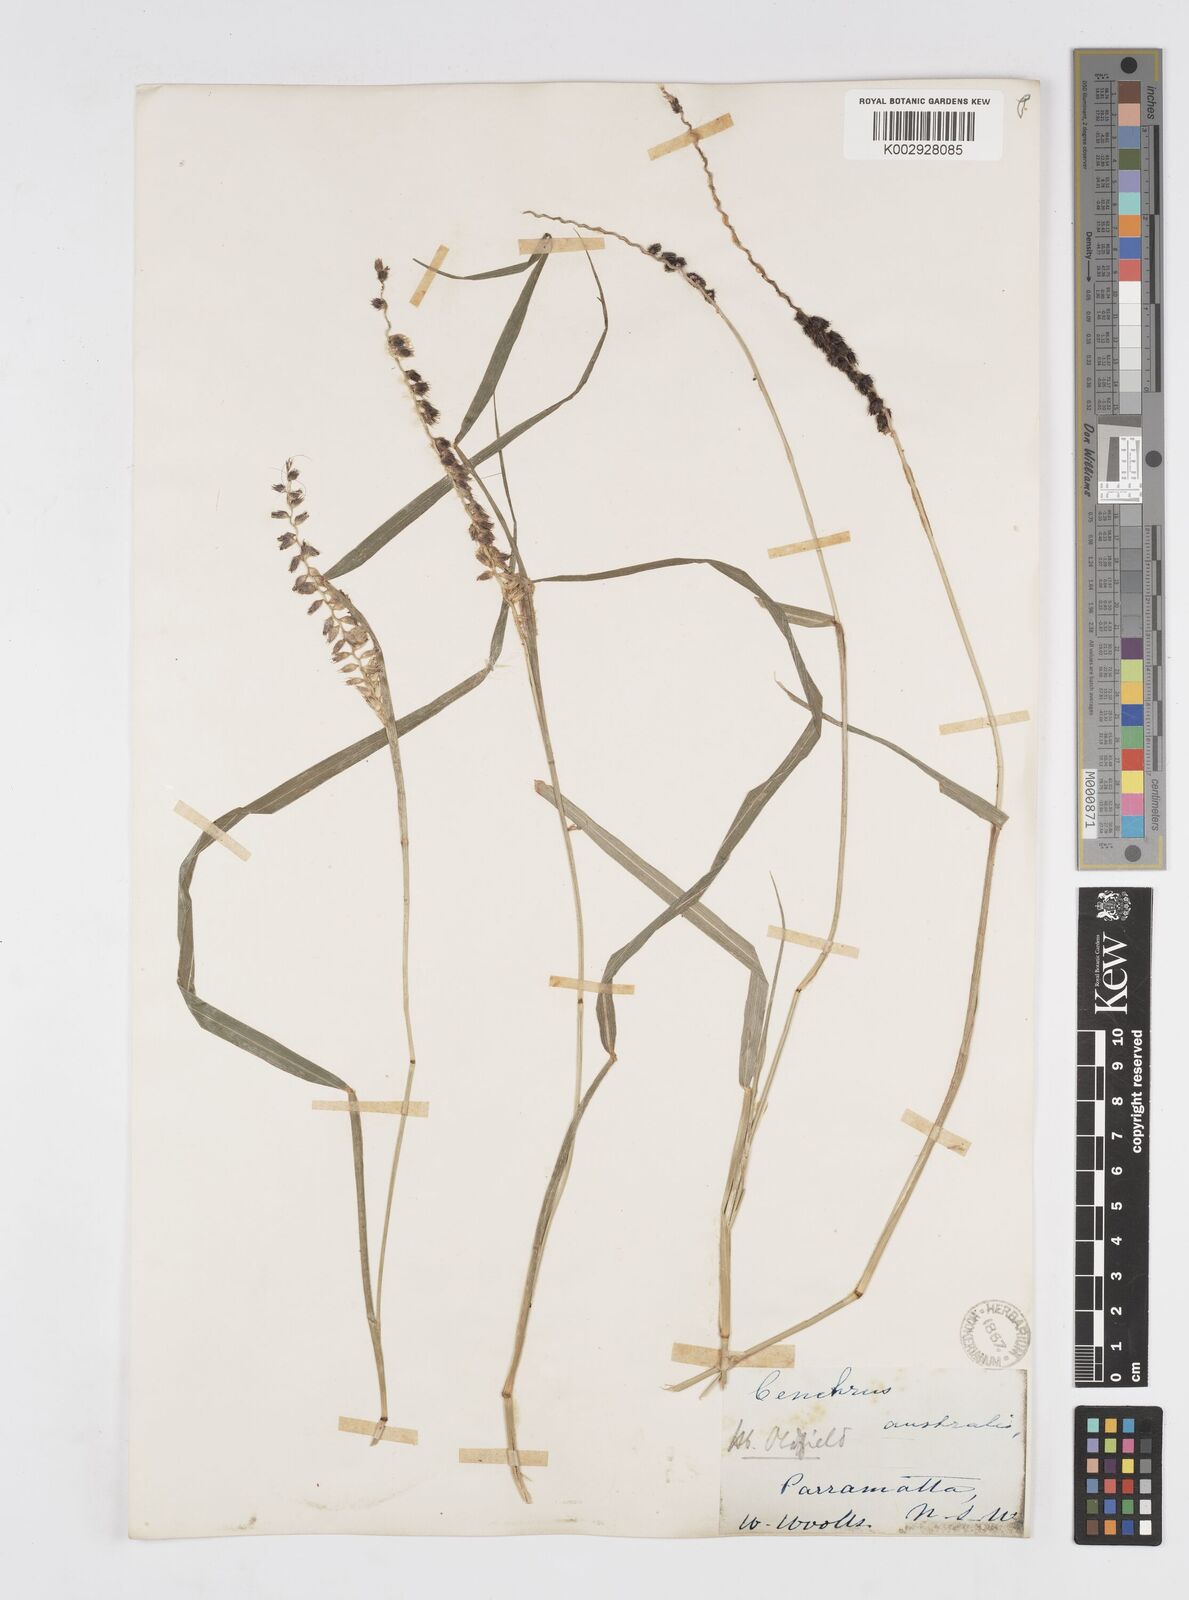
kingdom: Plantae
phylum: Tracheophyta
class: Liliopsida
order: Poales
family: Poaceae
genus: Cenchrus
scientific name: Cenchrus caliculatus
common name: Large bur grass
